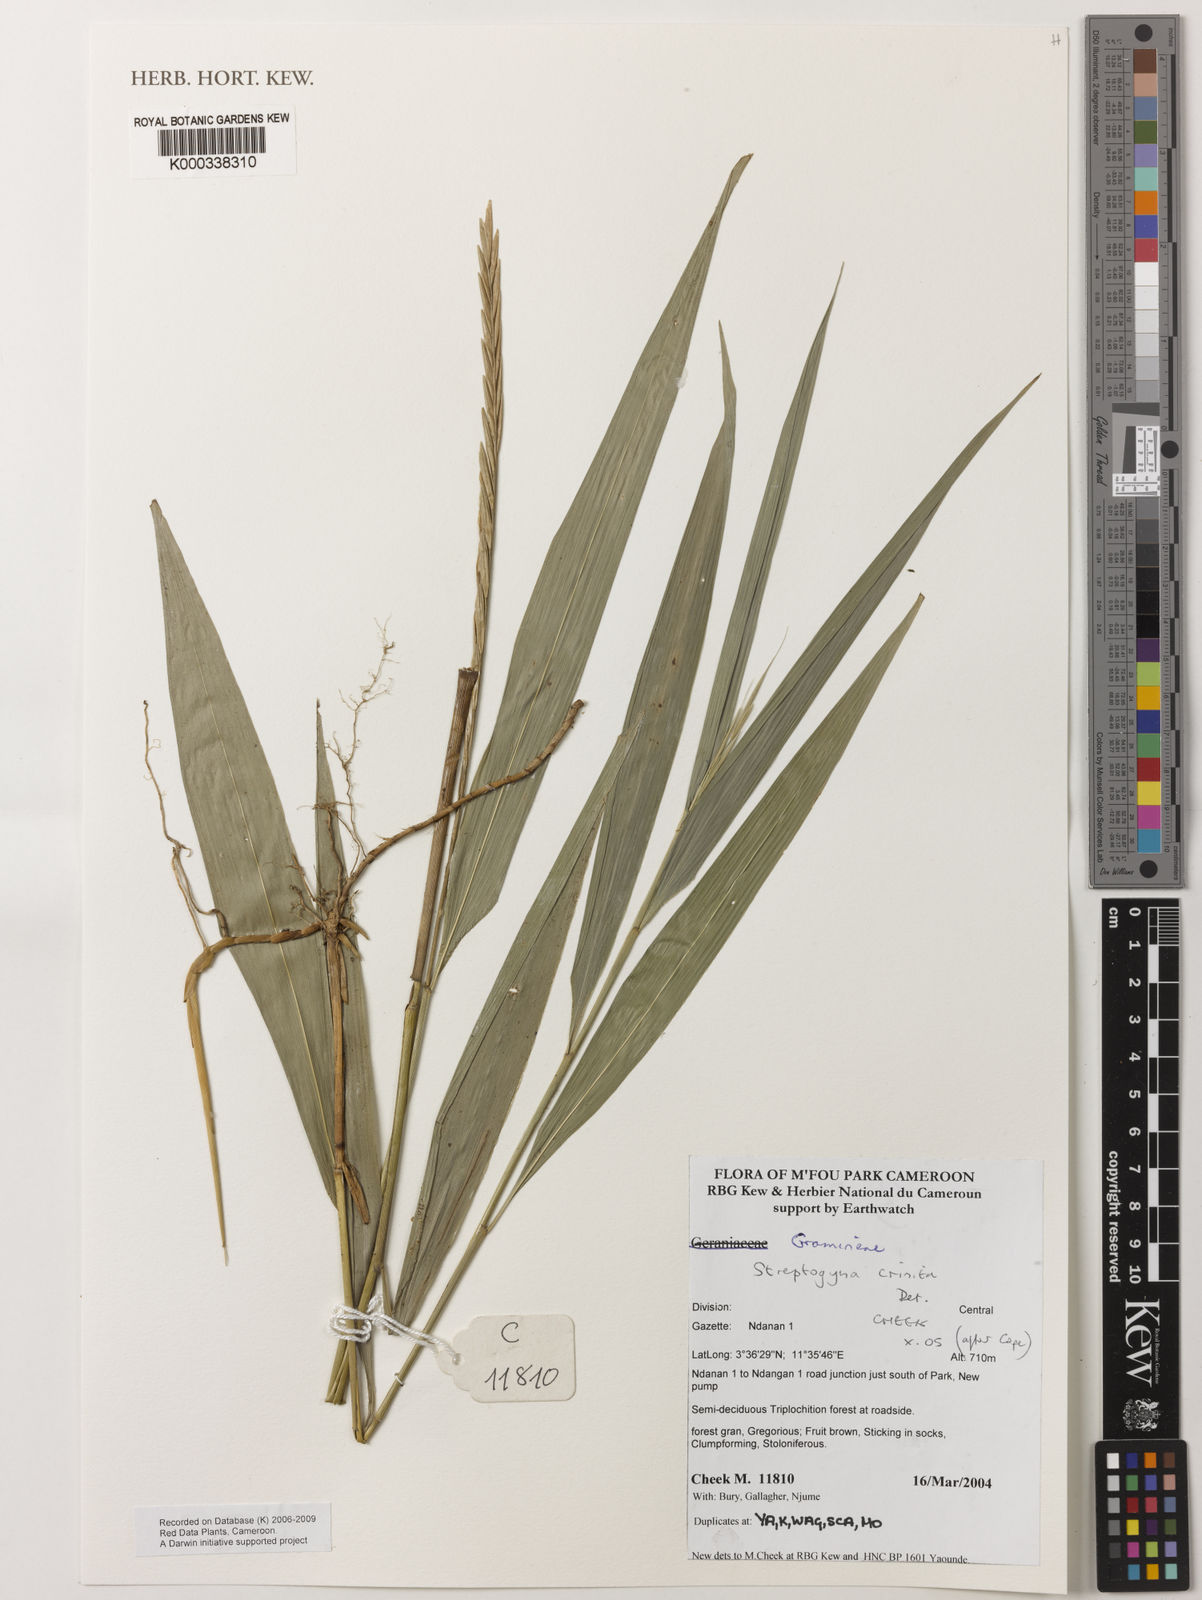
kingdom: Plantae
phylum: Tracheophyta
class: Liliopsida
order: Poales
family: Poaceae
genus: Streptogyna
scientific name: Streptogyna crinita
